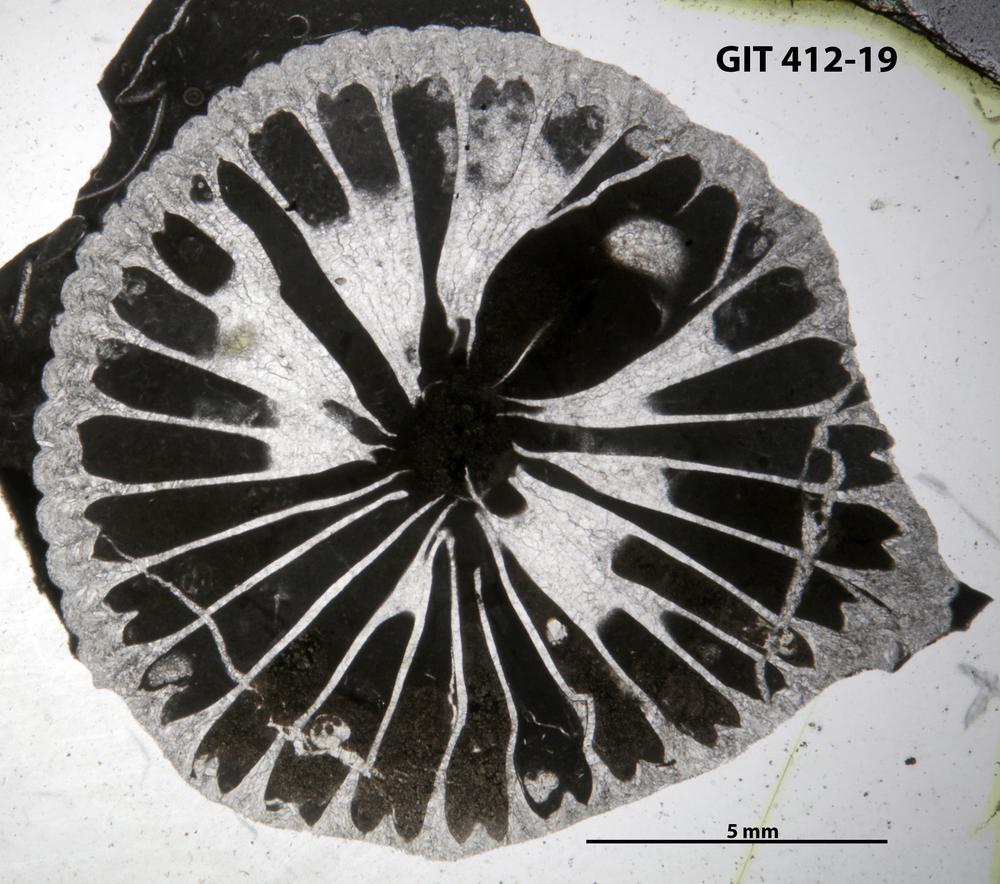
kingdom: Animalia
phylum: Cnidaria
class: Anthozoa
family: Amplexidae
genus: Heterophrentis
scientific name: Heterophrentis
